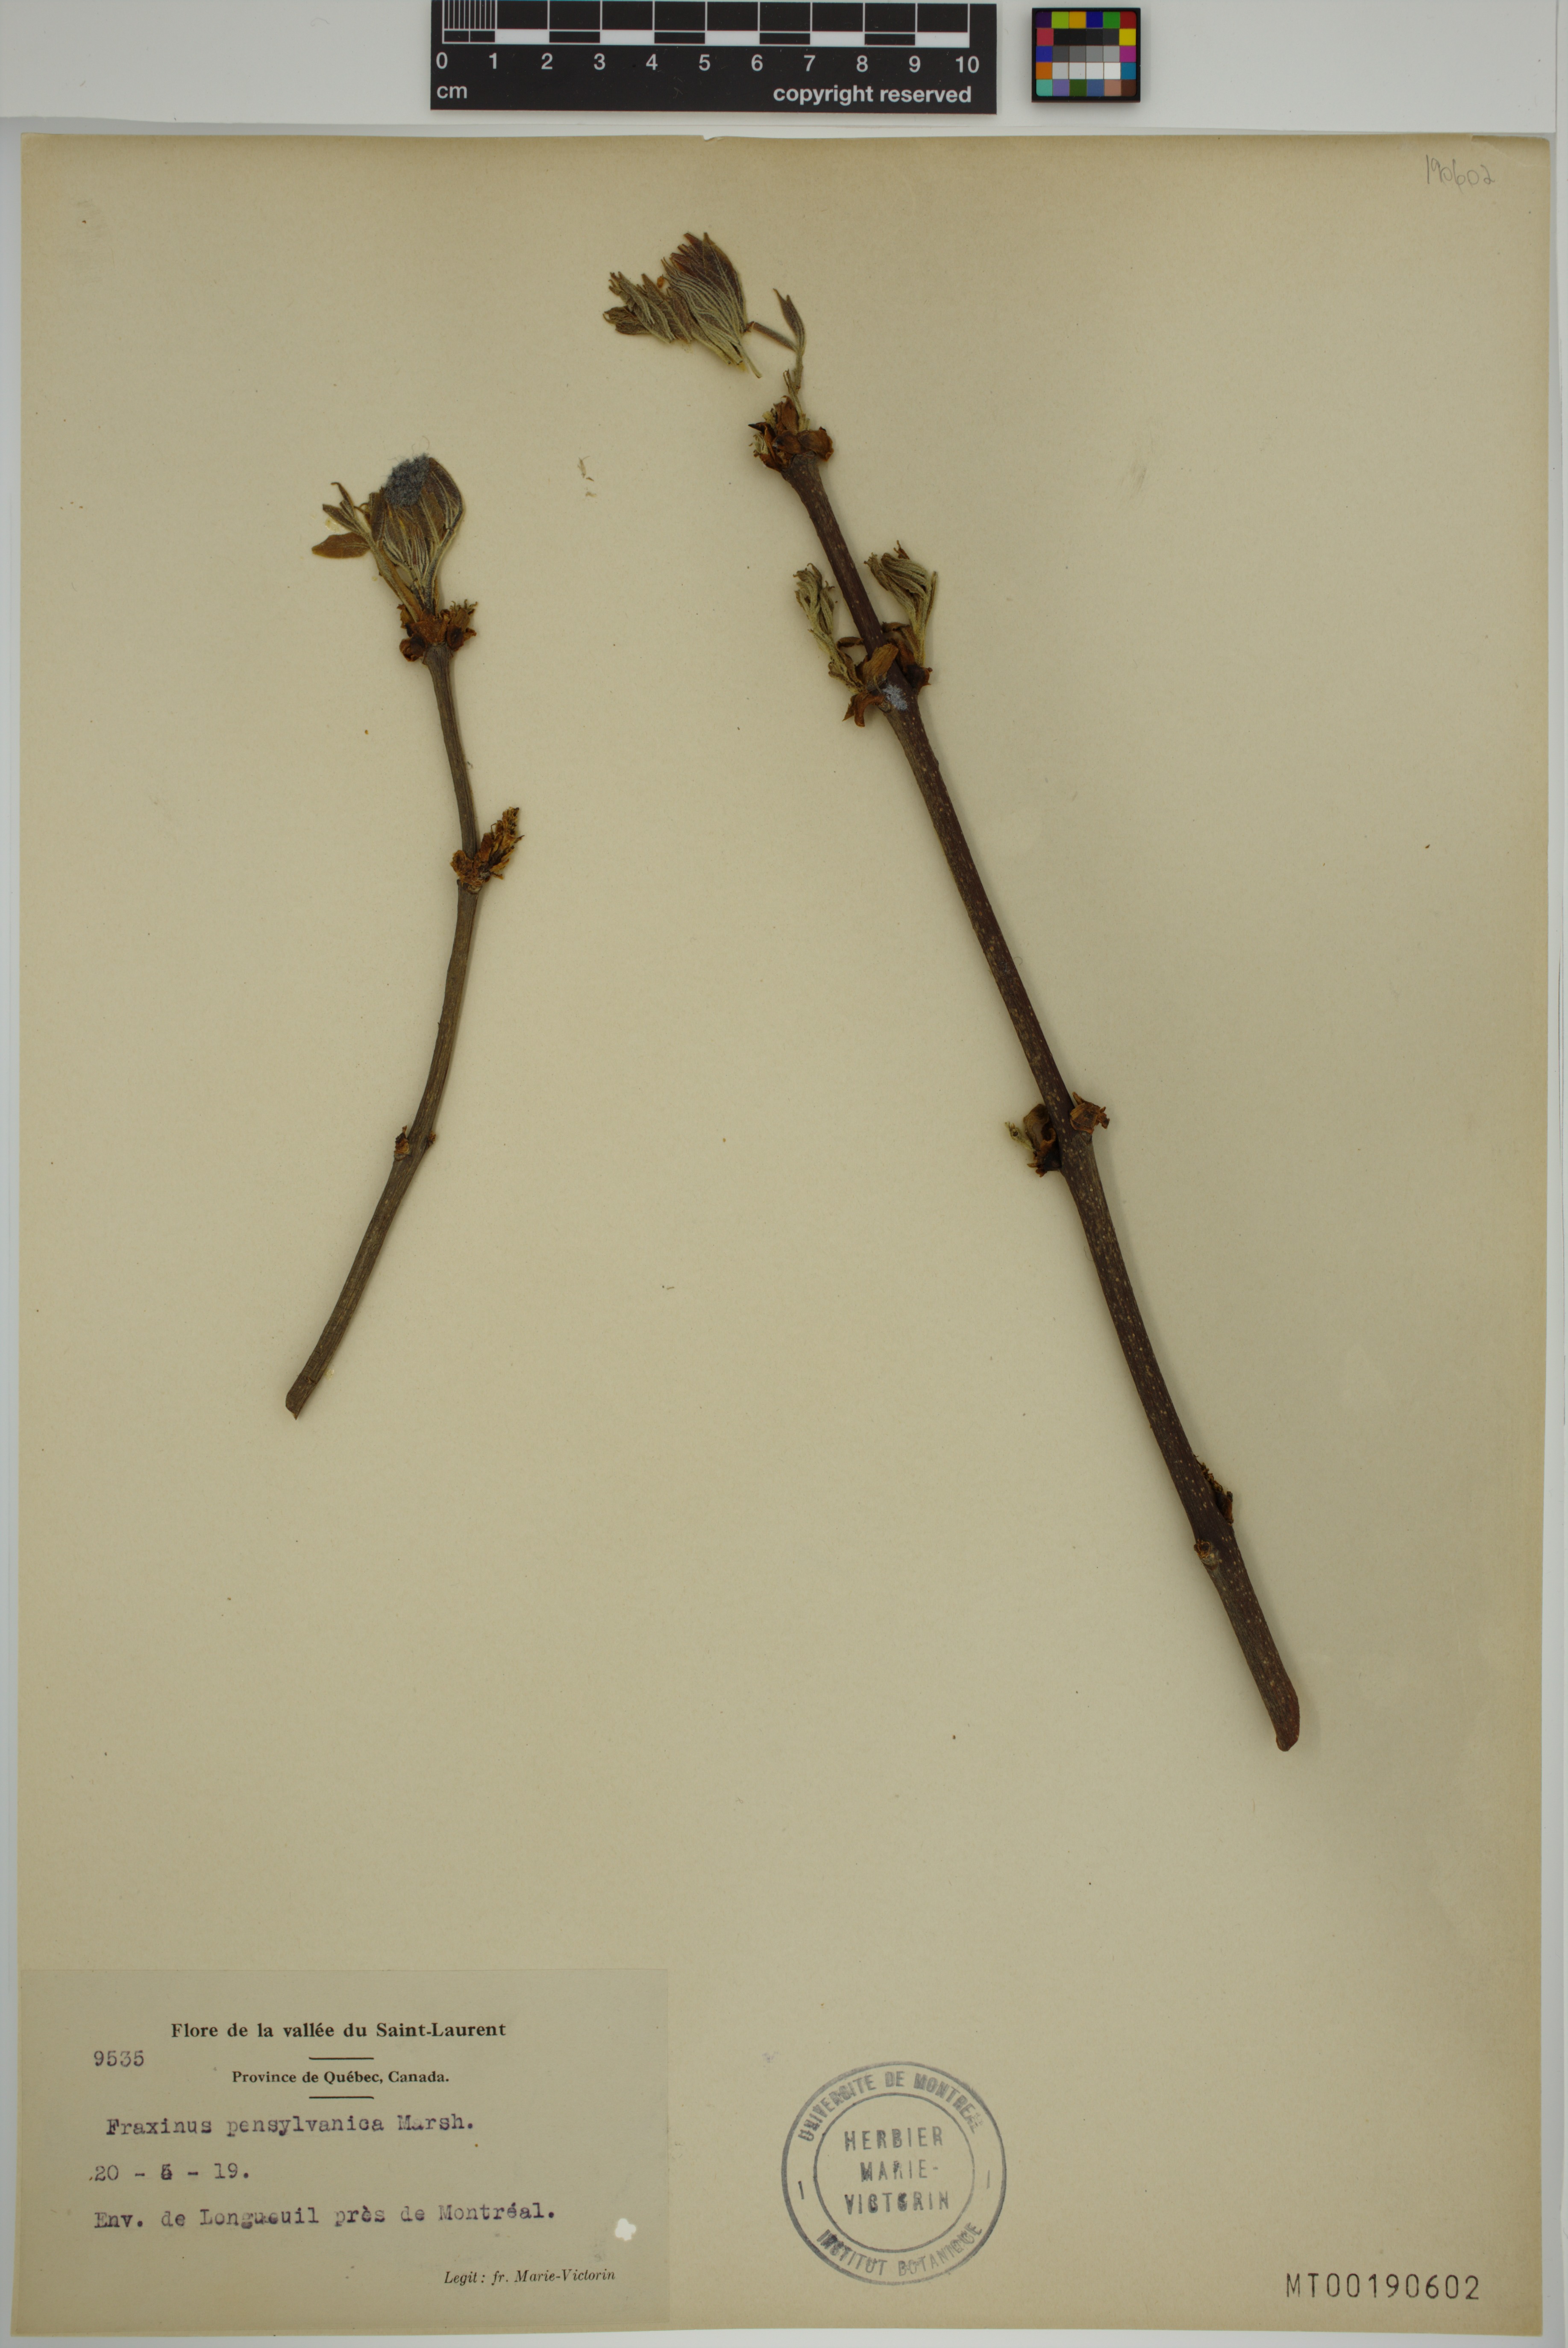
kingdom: Plantae
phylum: Tracheophyta
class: Magnoliopsida
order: Lamiales
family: Oleaceae
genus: Fraxinus
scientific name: Fraxinus pennsylvanica
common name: Green ash
